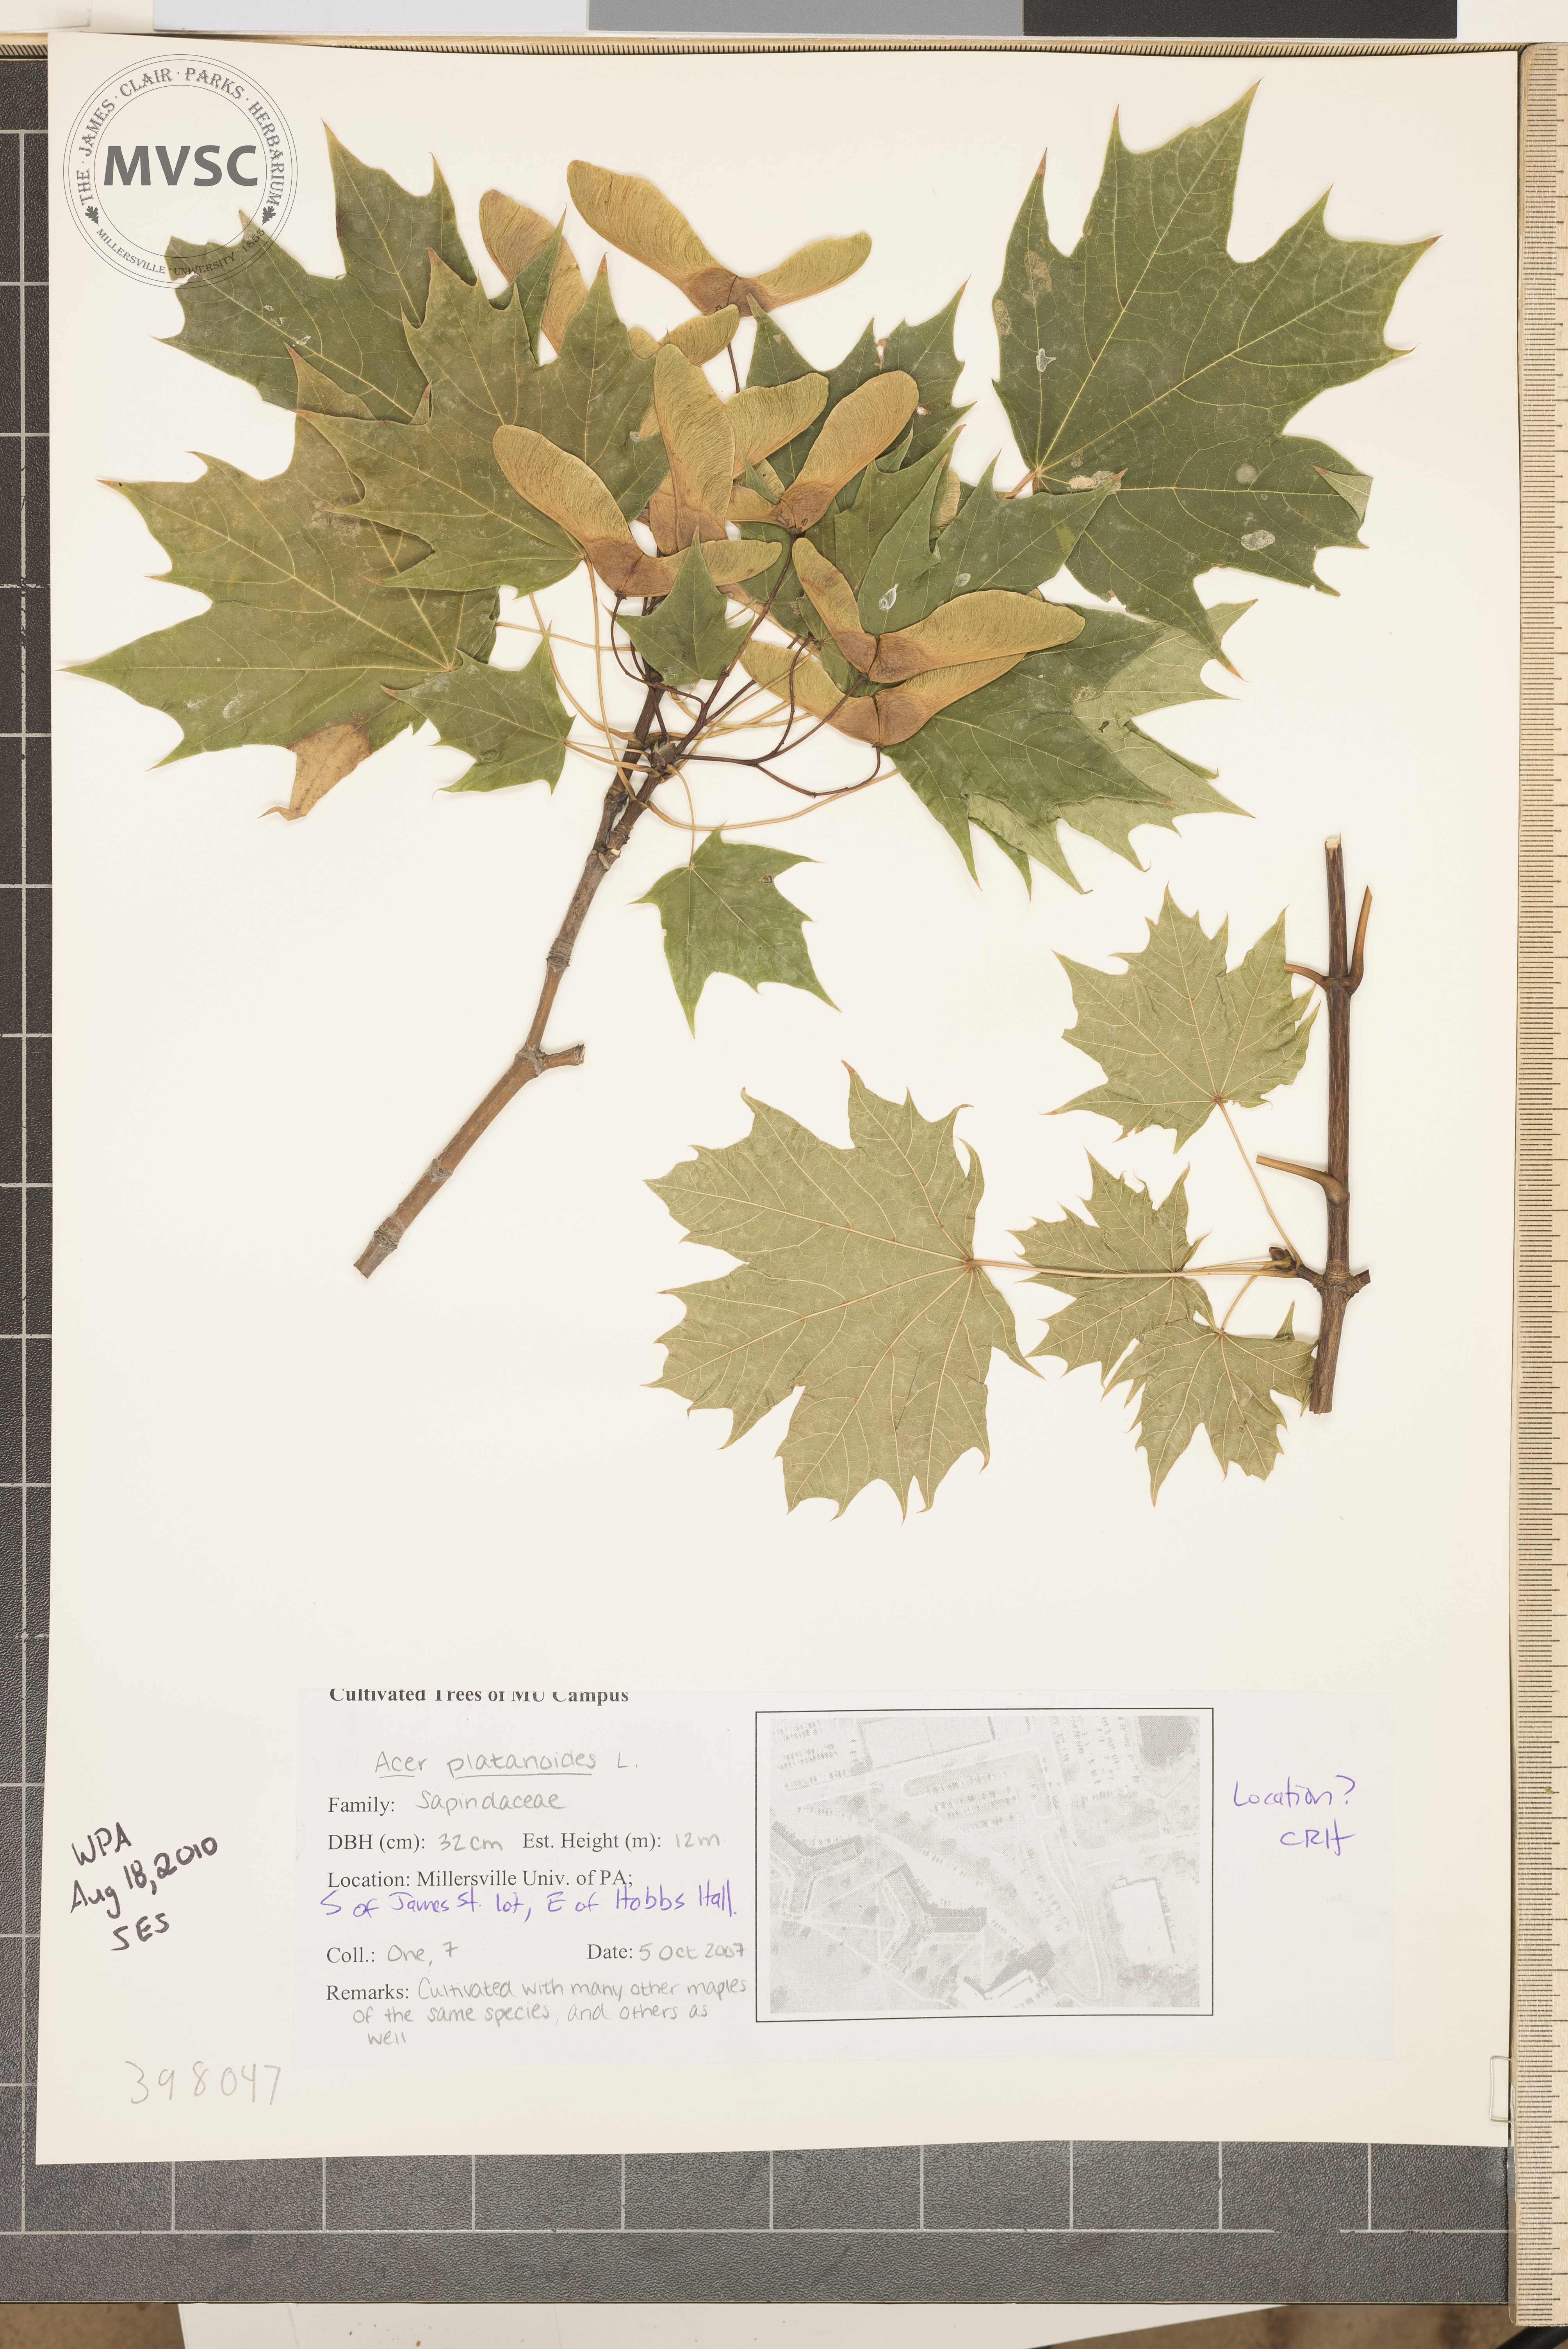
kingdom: Plantae
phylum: Tracheophyta
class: Magnoliopsida
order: Sapindales
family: Sapindaceae
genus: Acer
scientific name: Acer platanoides
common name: Norway maple
